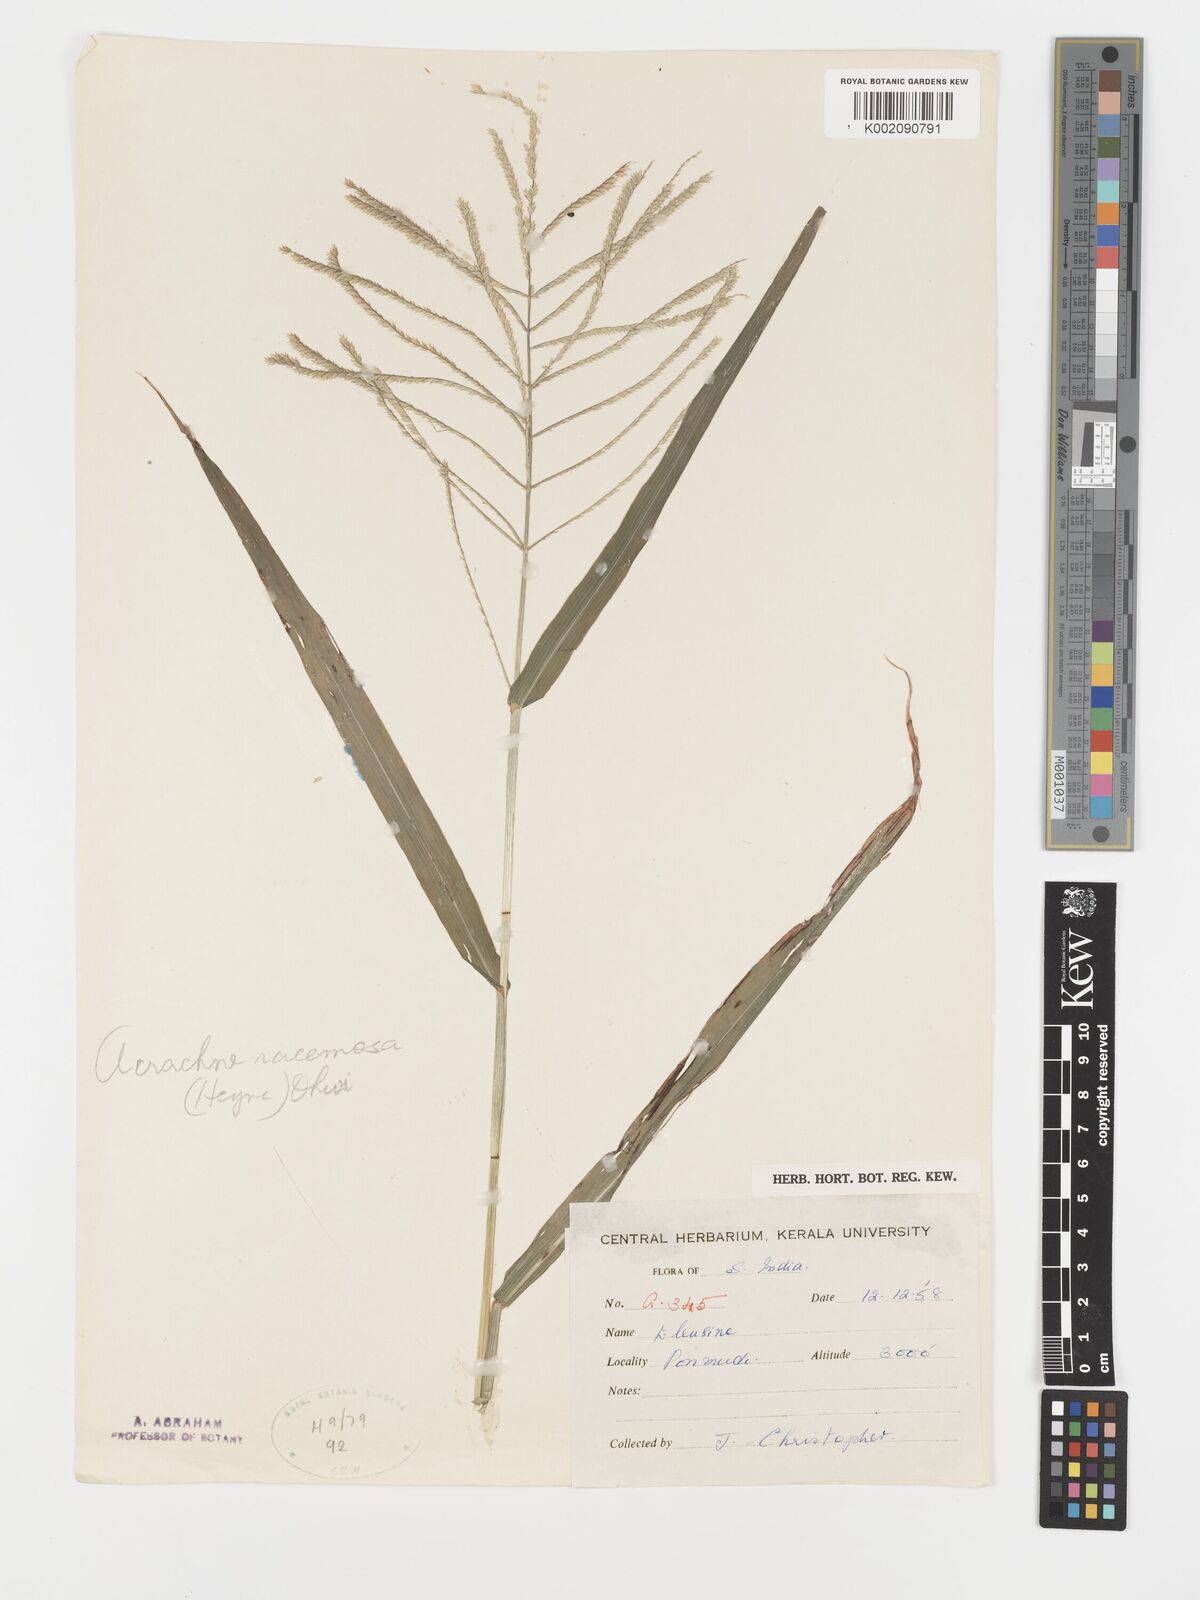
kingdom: Plantae
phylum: Tracheophyta
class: Liliopsida
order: Poales
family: Poaceae
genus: Acrachne
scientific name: Acrachne racemosa
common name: Goosegrass
